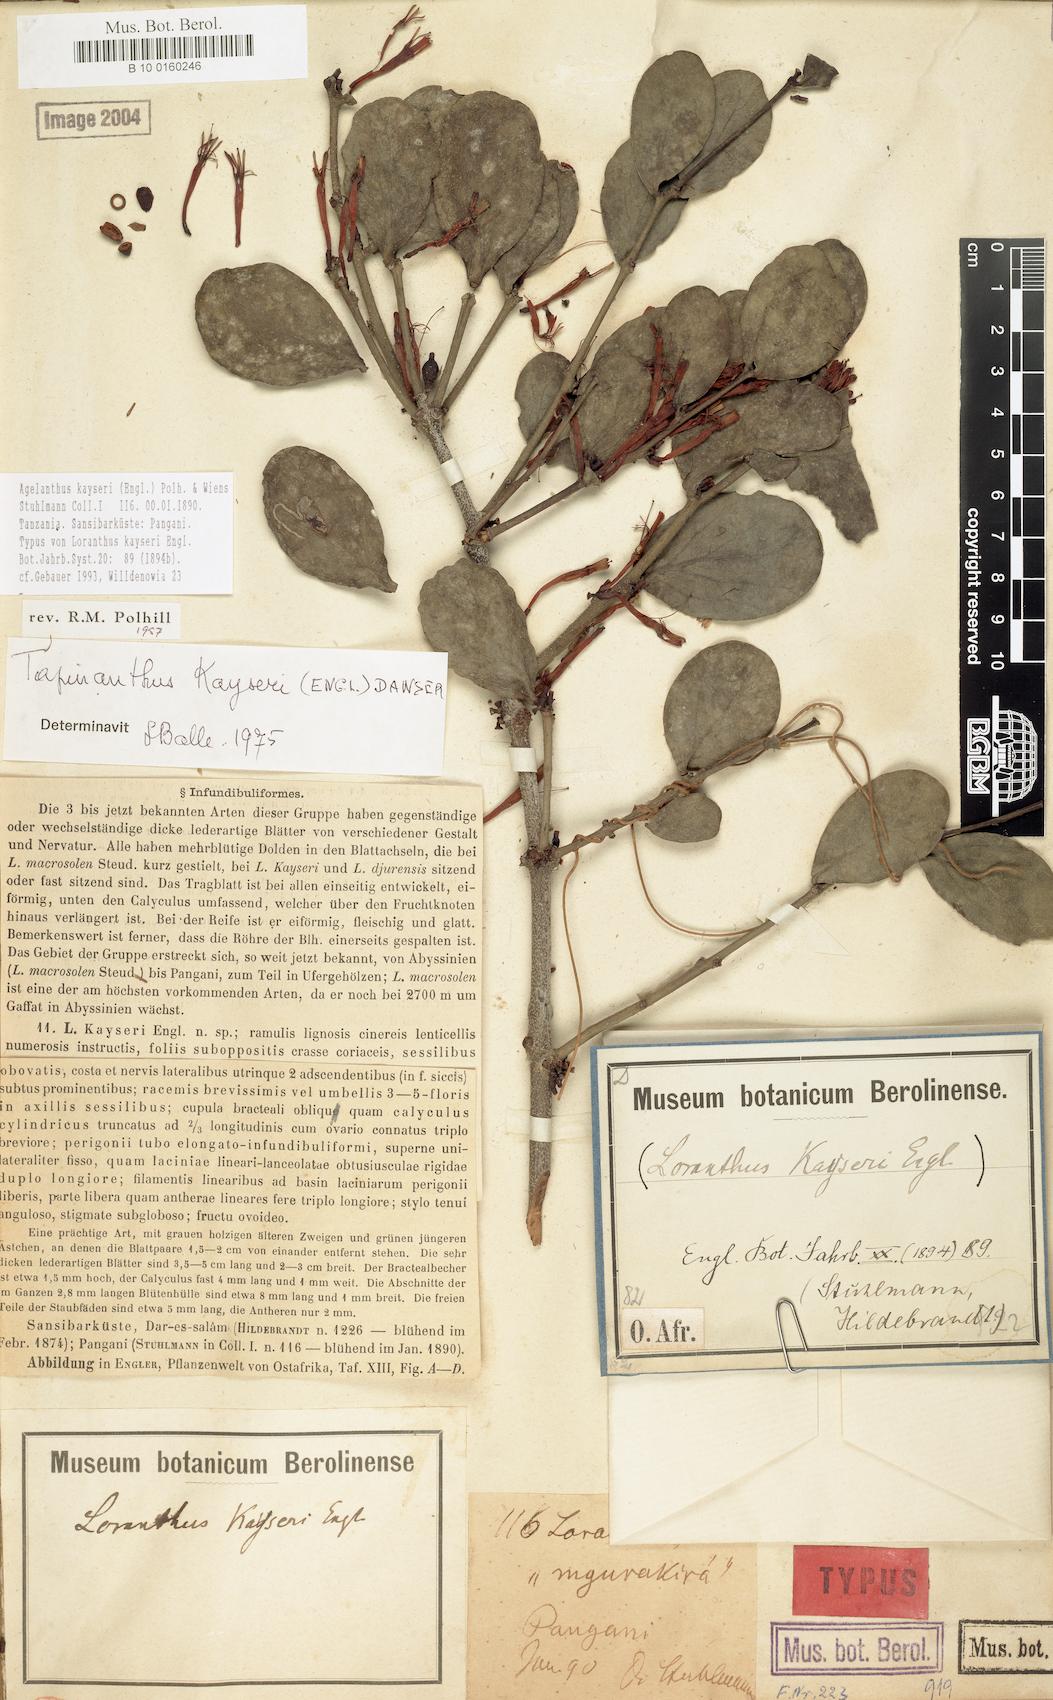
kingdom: Plantae
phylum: Tracheophyta
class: Magnoliopsida
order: Santalales
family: Loranthaceae
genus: Agelanthus
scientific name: Agelanthus kayseri
